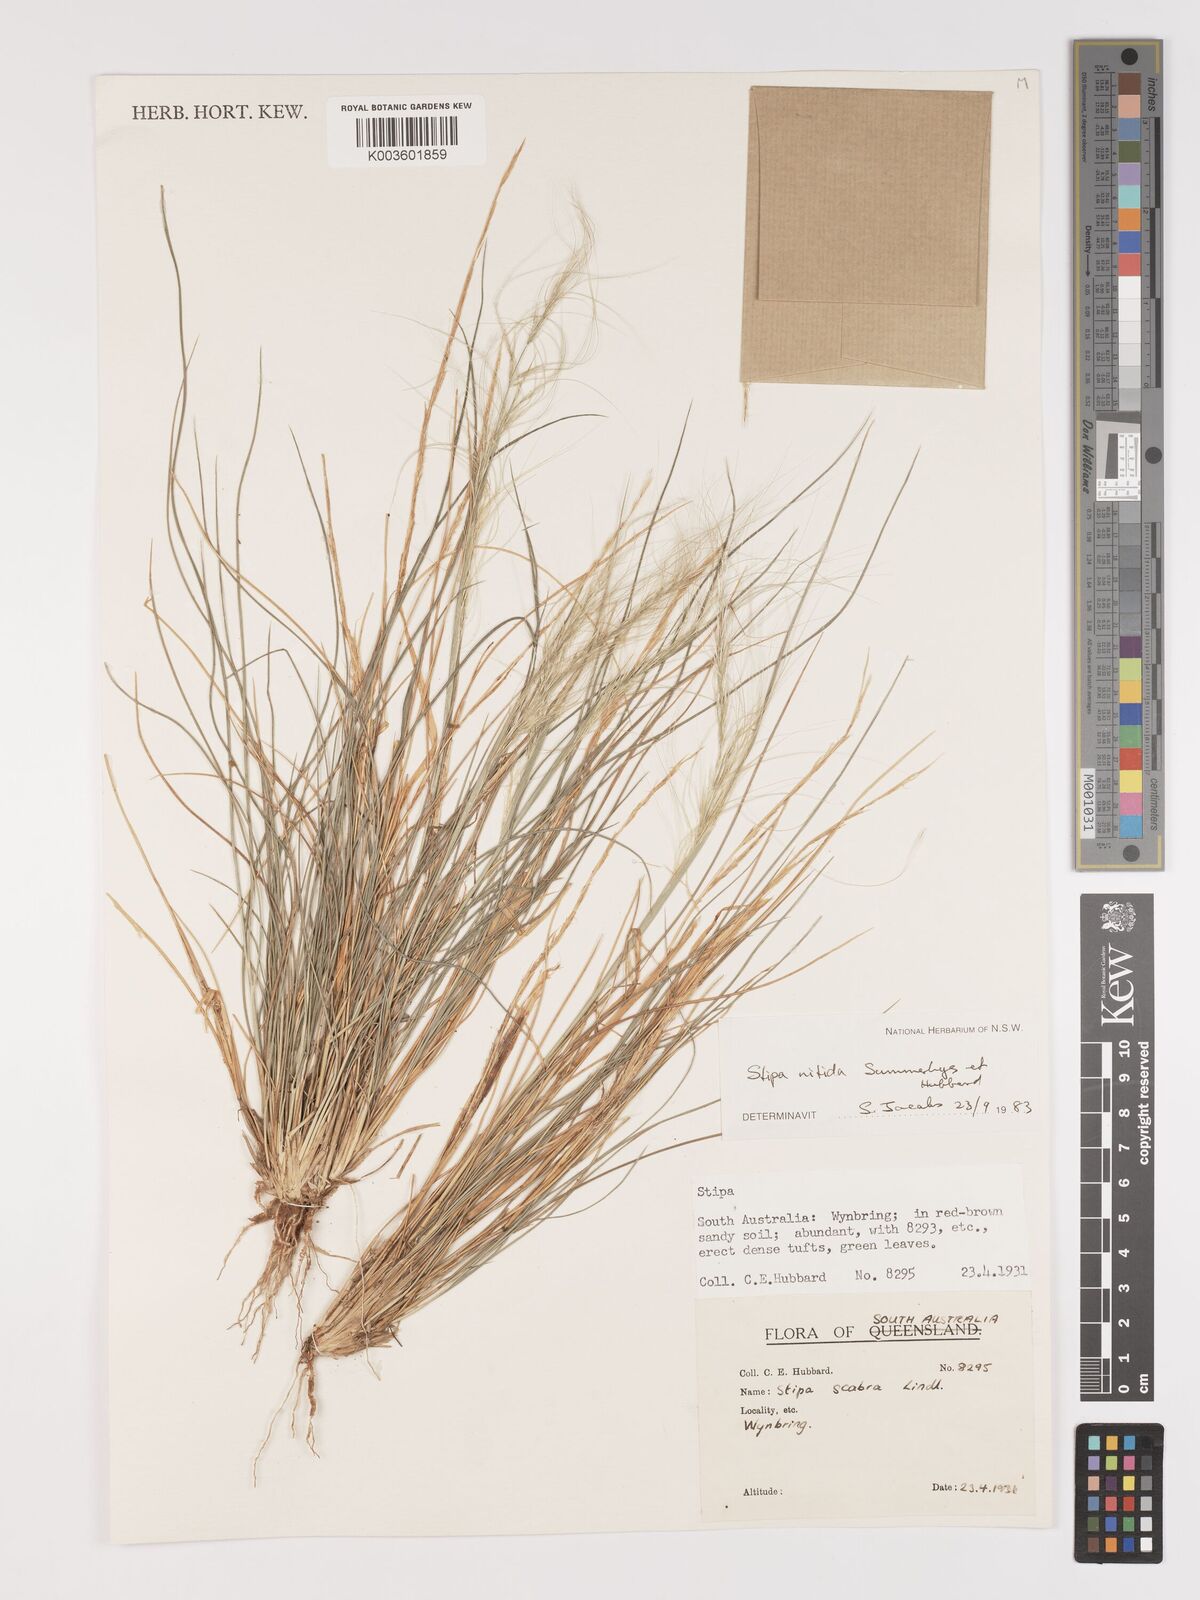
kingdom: Plantae
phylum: Tracheophyta
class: Liliopsida
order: Poales
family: Poaceae
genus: Austrostipa
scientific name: Austrostipa nitida
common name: Balcarra grass
